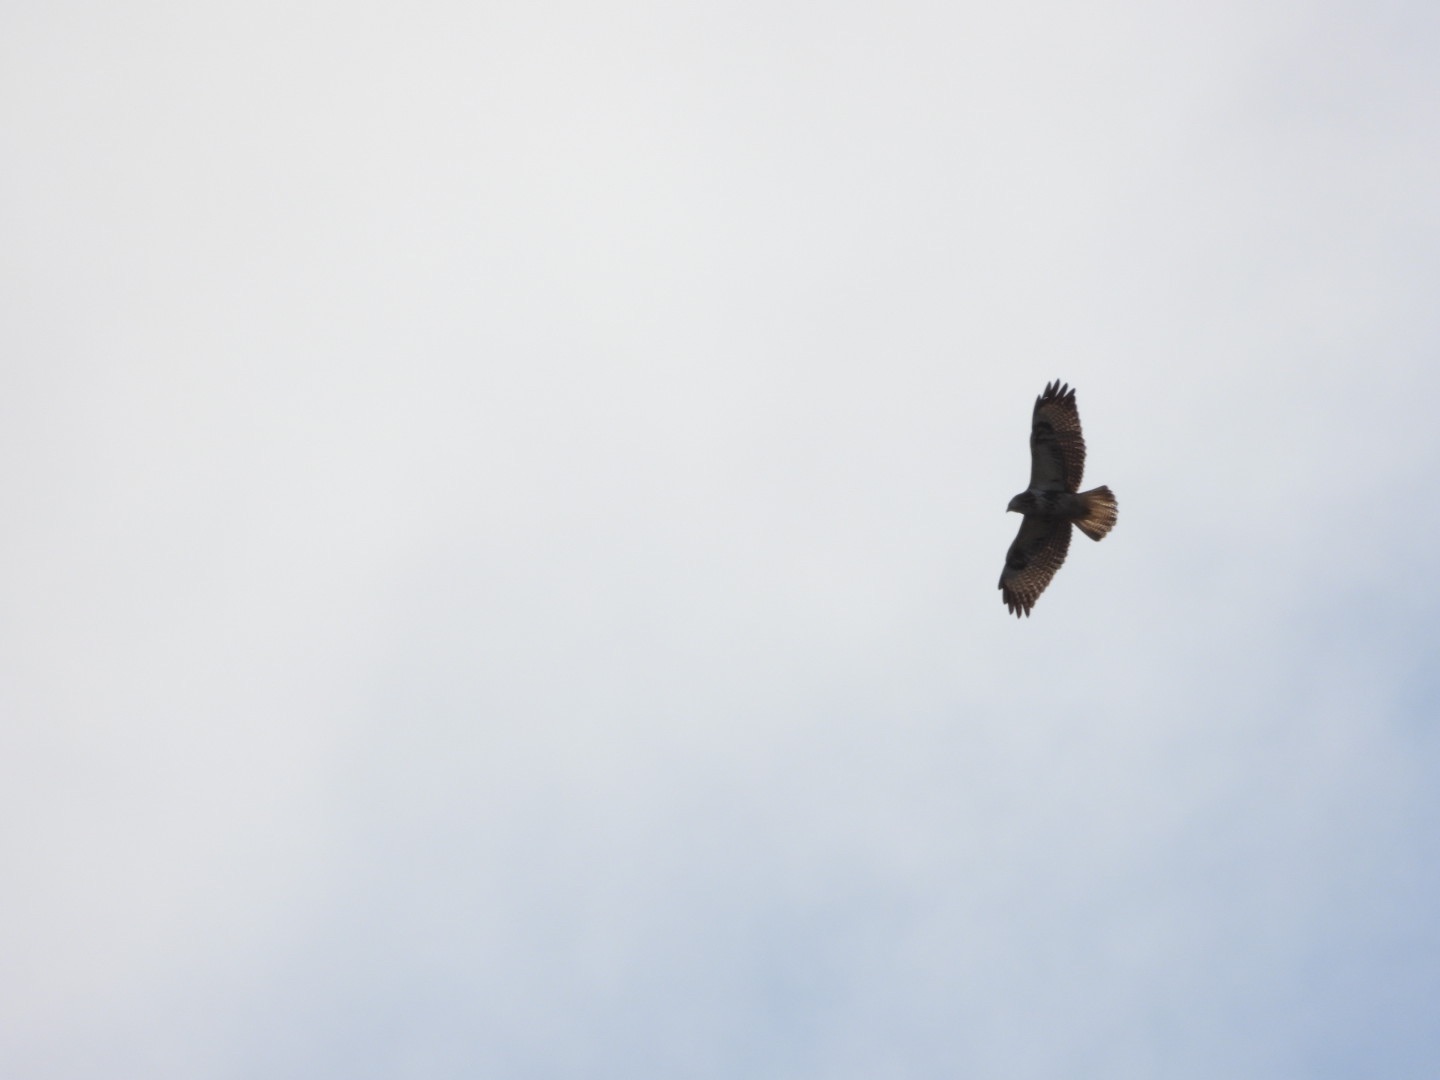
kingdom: Animalia
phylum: Chordata
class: Aves
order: Accipitriformes
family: Accipitridae
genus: Buteo
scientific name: Buteo buteo
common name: Musvåge
